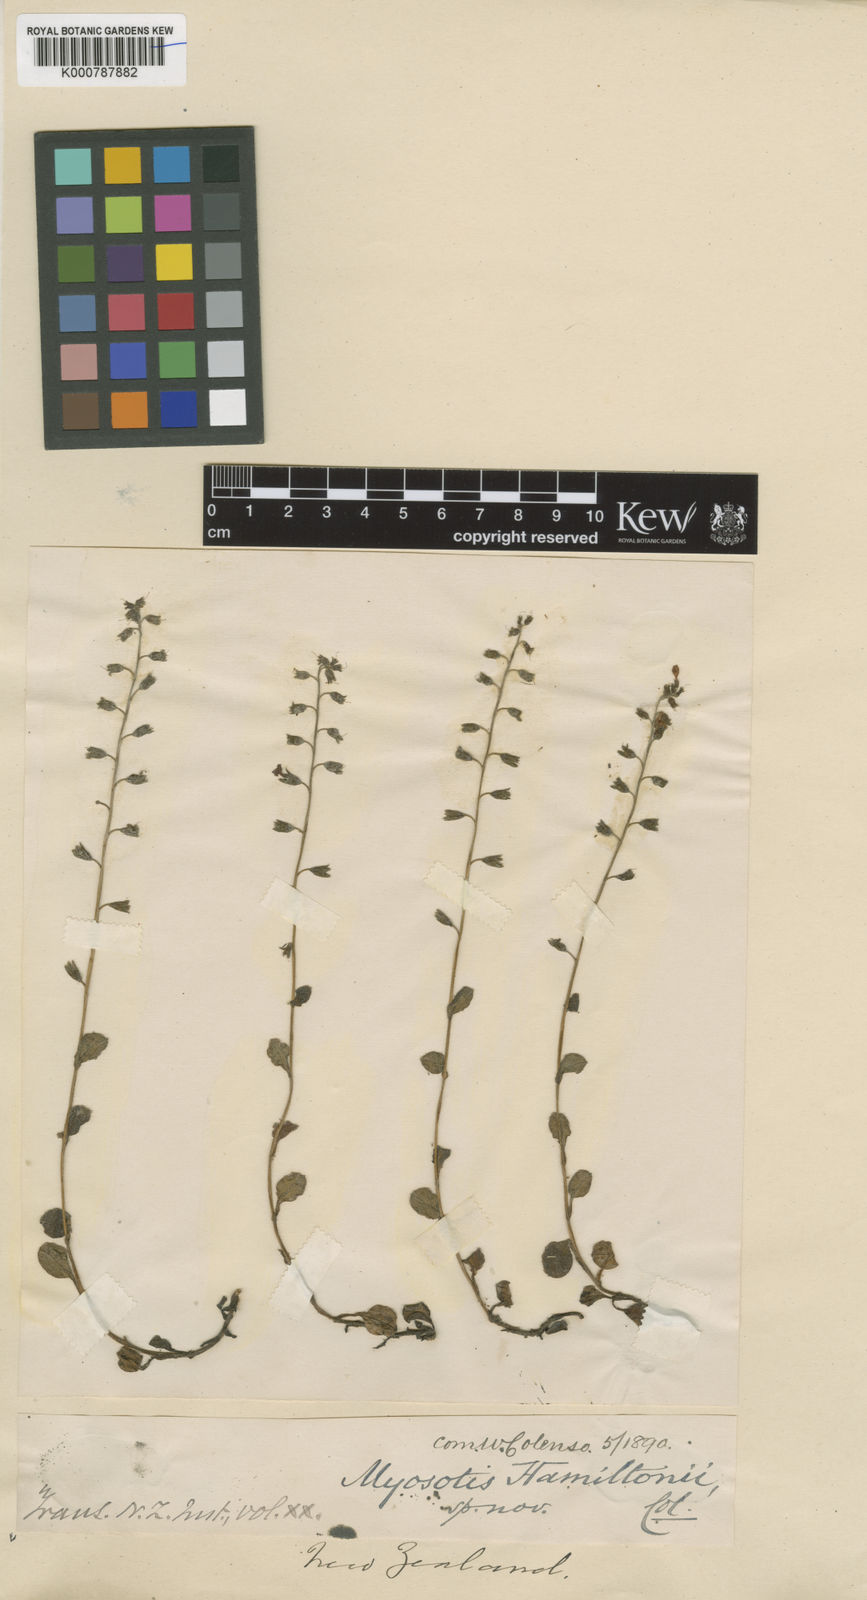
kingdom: Plantae
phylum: Tracheophyta
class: Magnoliopsida
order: Boraginales
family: Boraginaceae
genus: Myosotis
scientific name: Myosotis forsteri
